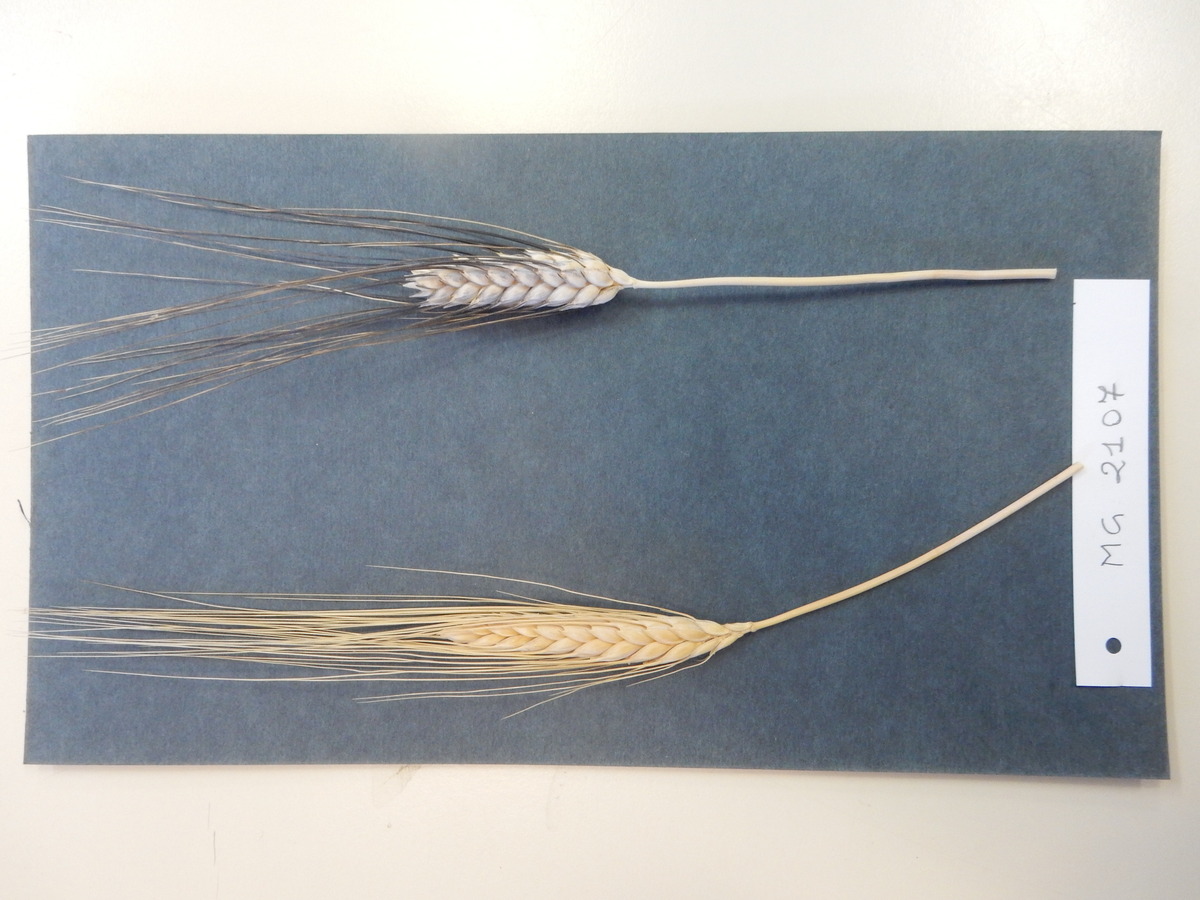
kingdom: Plantae
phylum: Tracheophyta
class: Liliopsida
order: Poales
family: Poaceae
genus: Triticum
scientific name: Triticum turgidum
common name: Wheat
